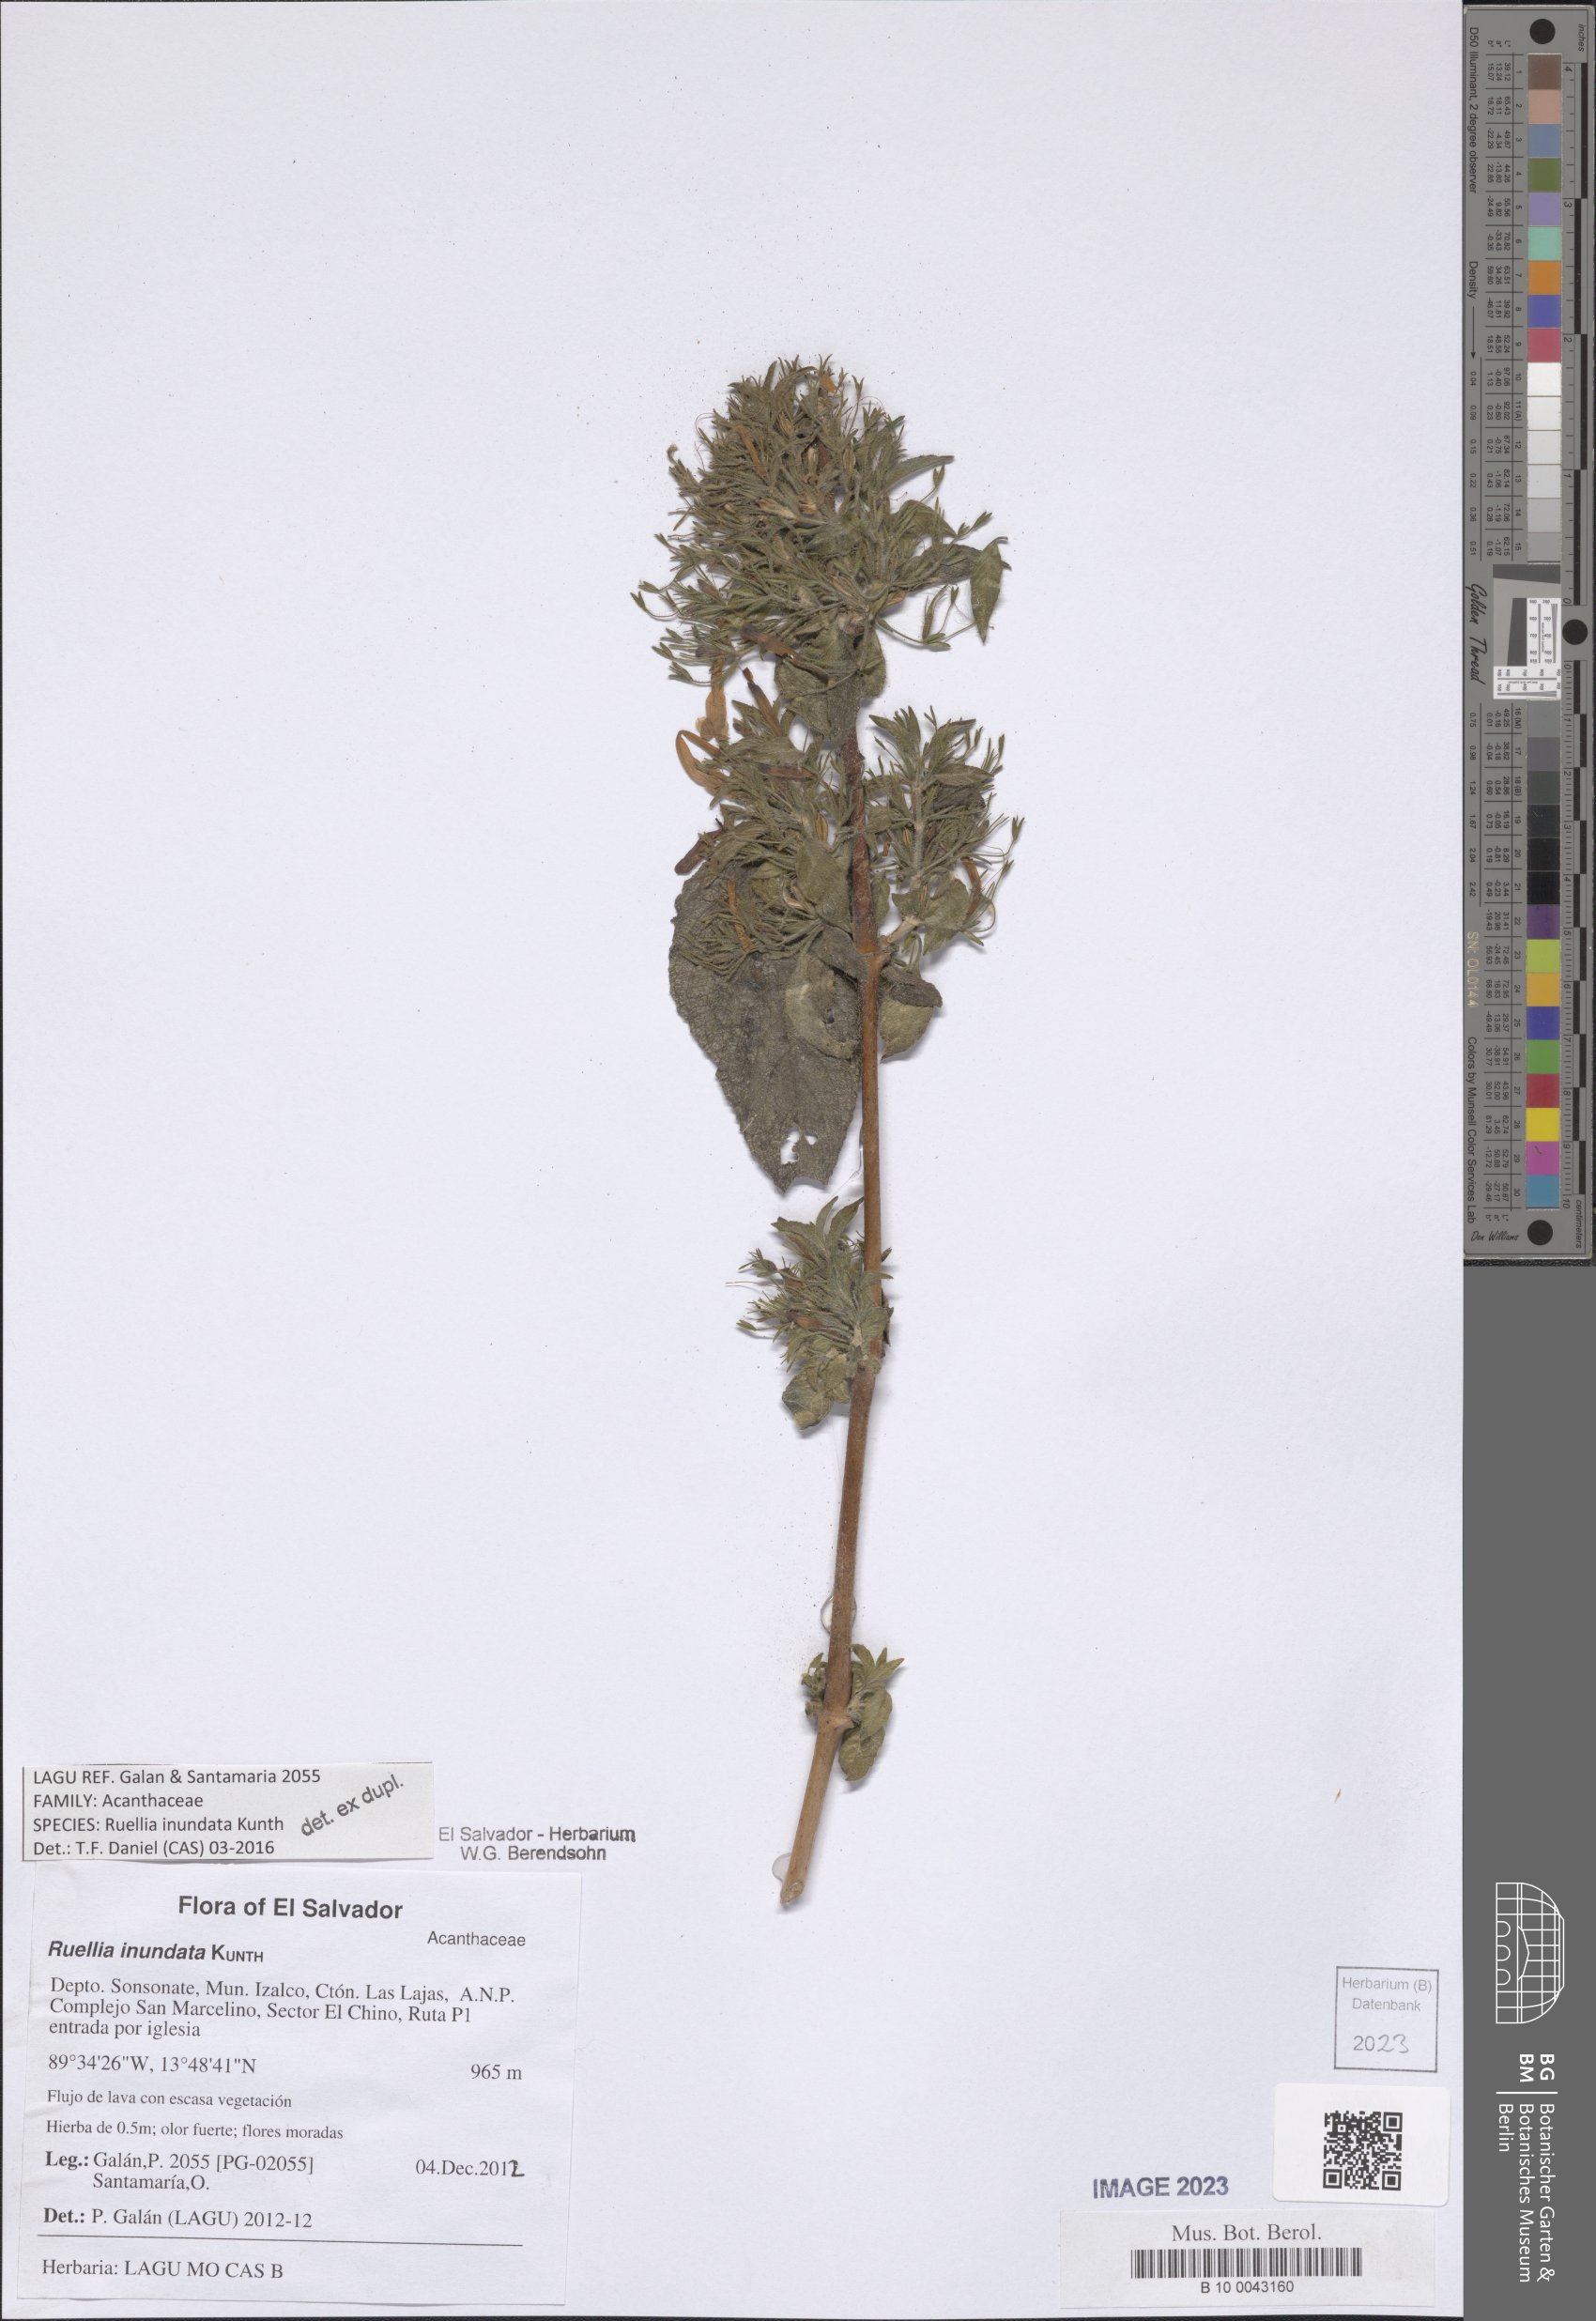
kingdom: Plantae
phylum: Tracheophyta
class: Magnoliopsida
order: Lamiales
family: Acanthaceae
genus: Ruellia
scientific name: Ruellia inundata
